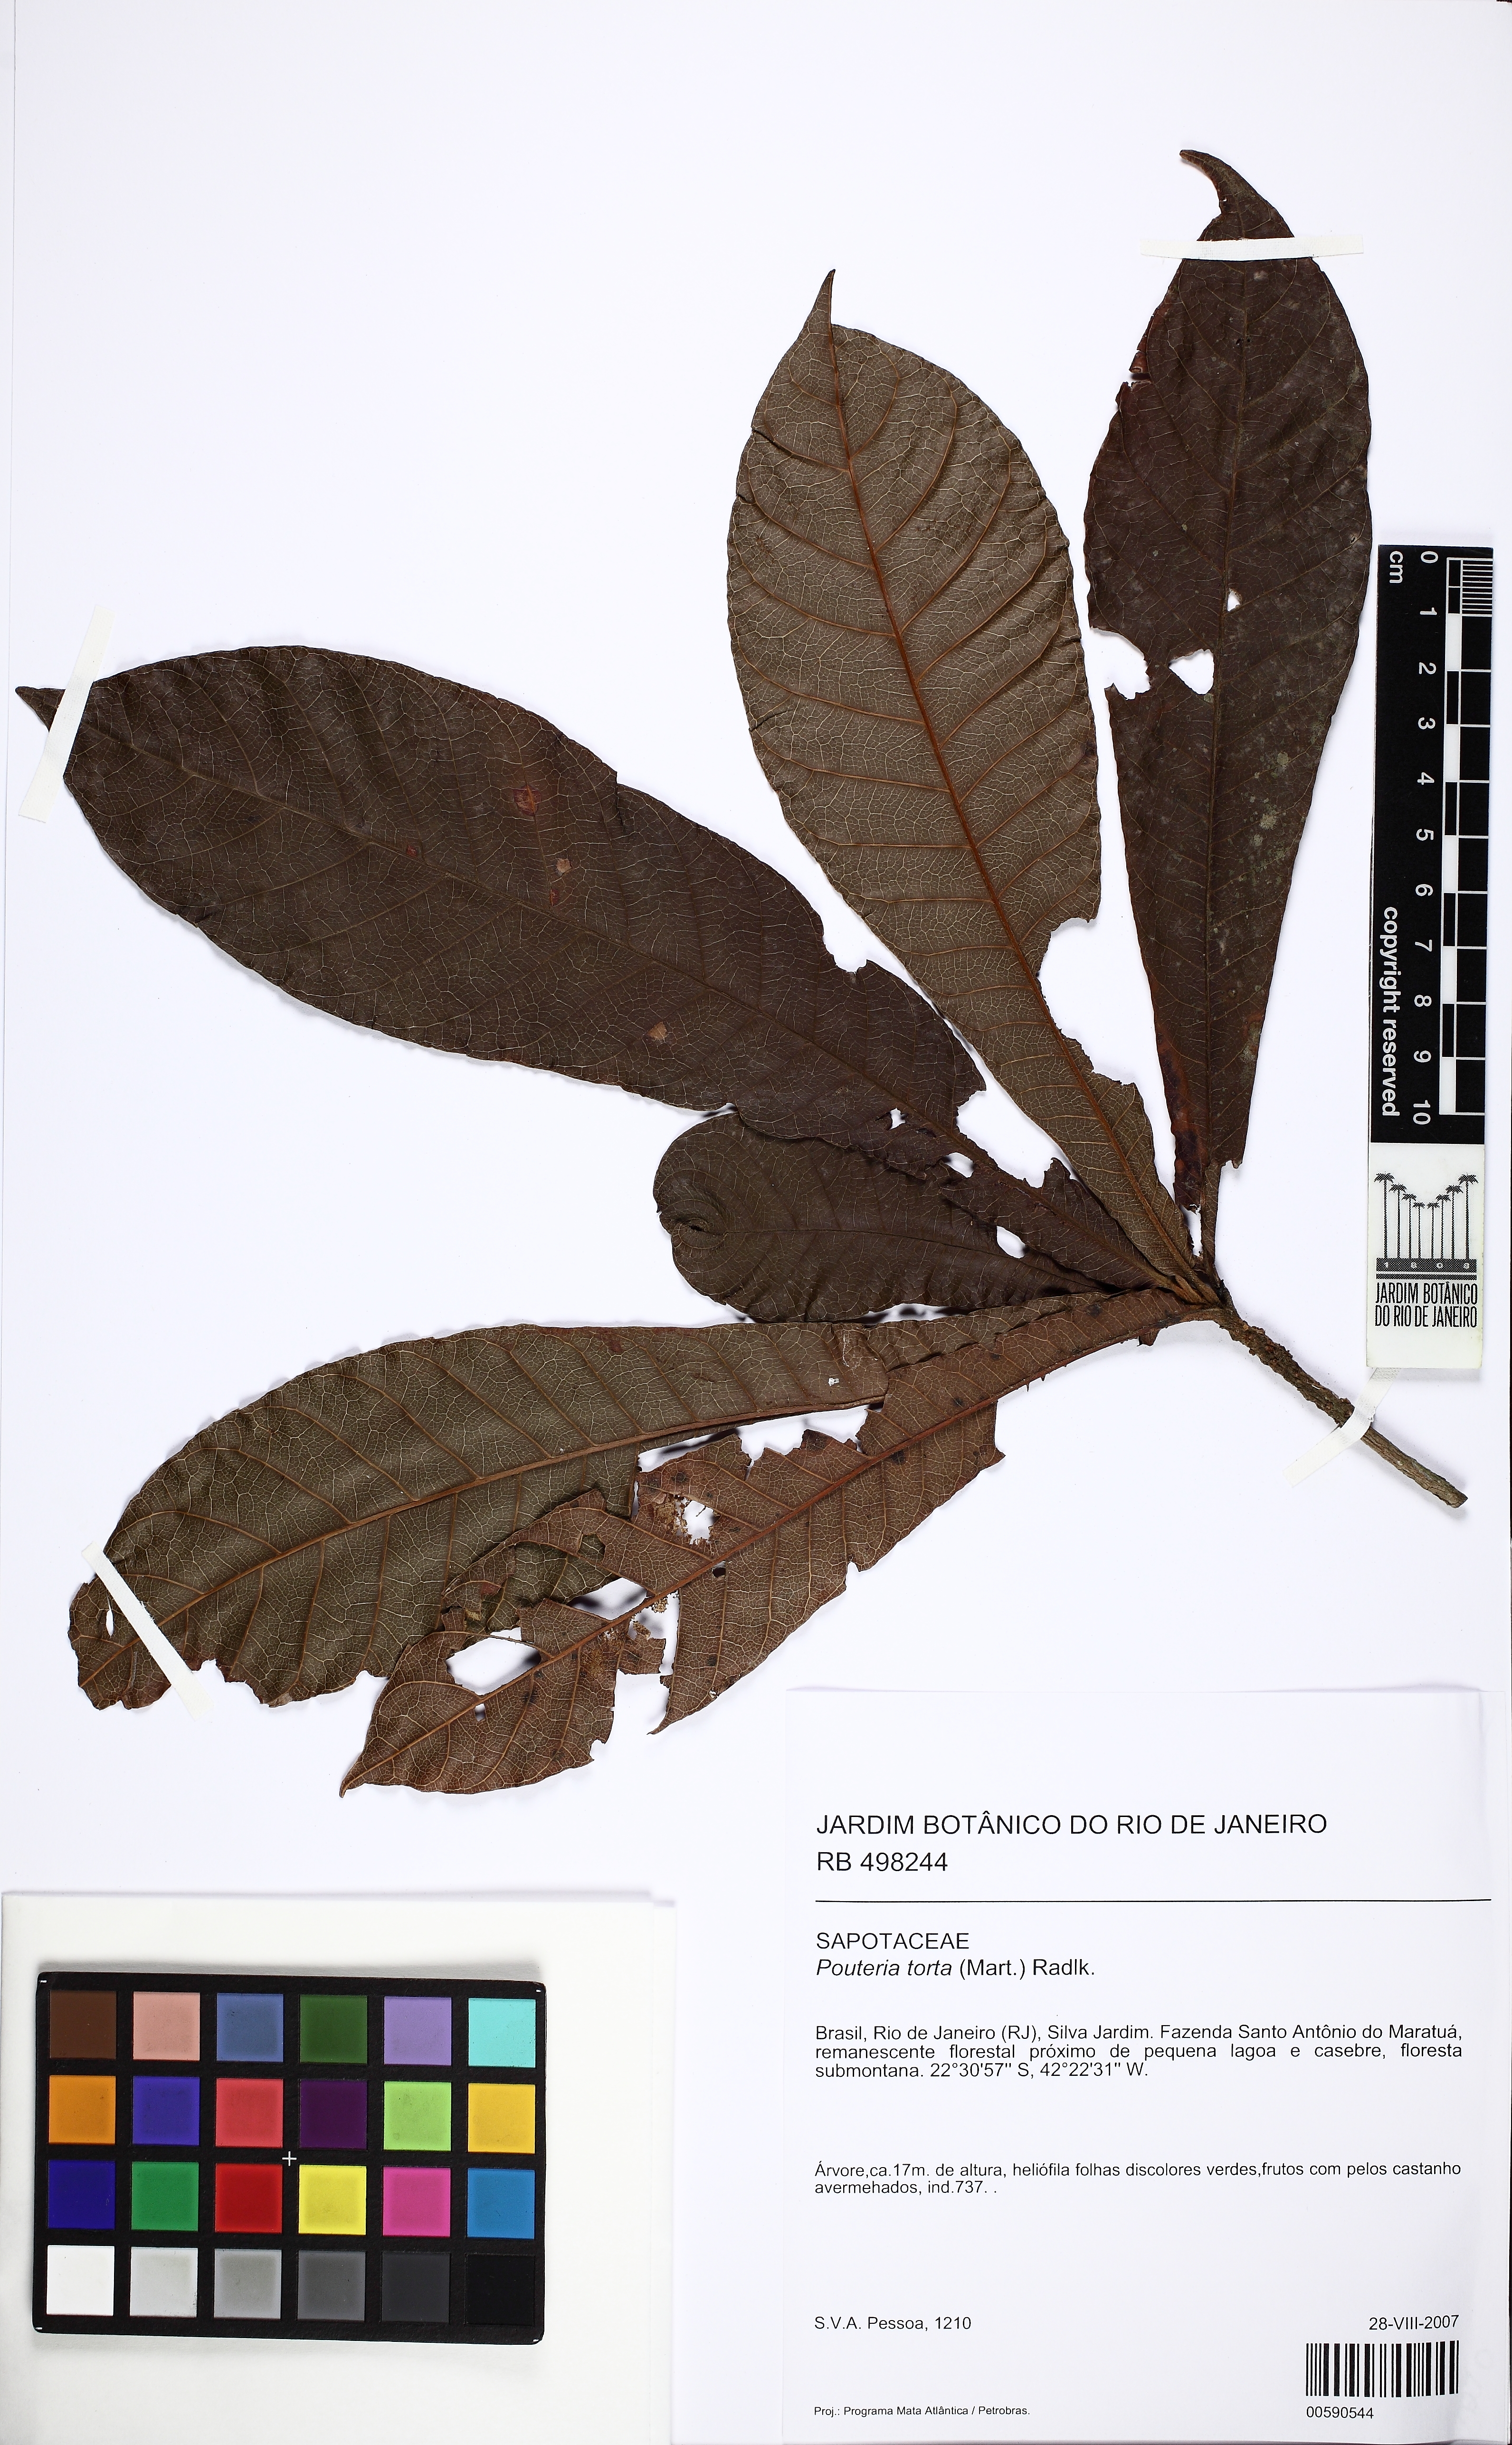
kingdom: Plantae
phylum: Tracheophyta
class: Magnoliopsida
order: Ericales
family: Sapotaceae
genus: Pouteria
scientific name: Pouteria torta
